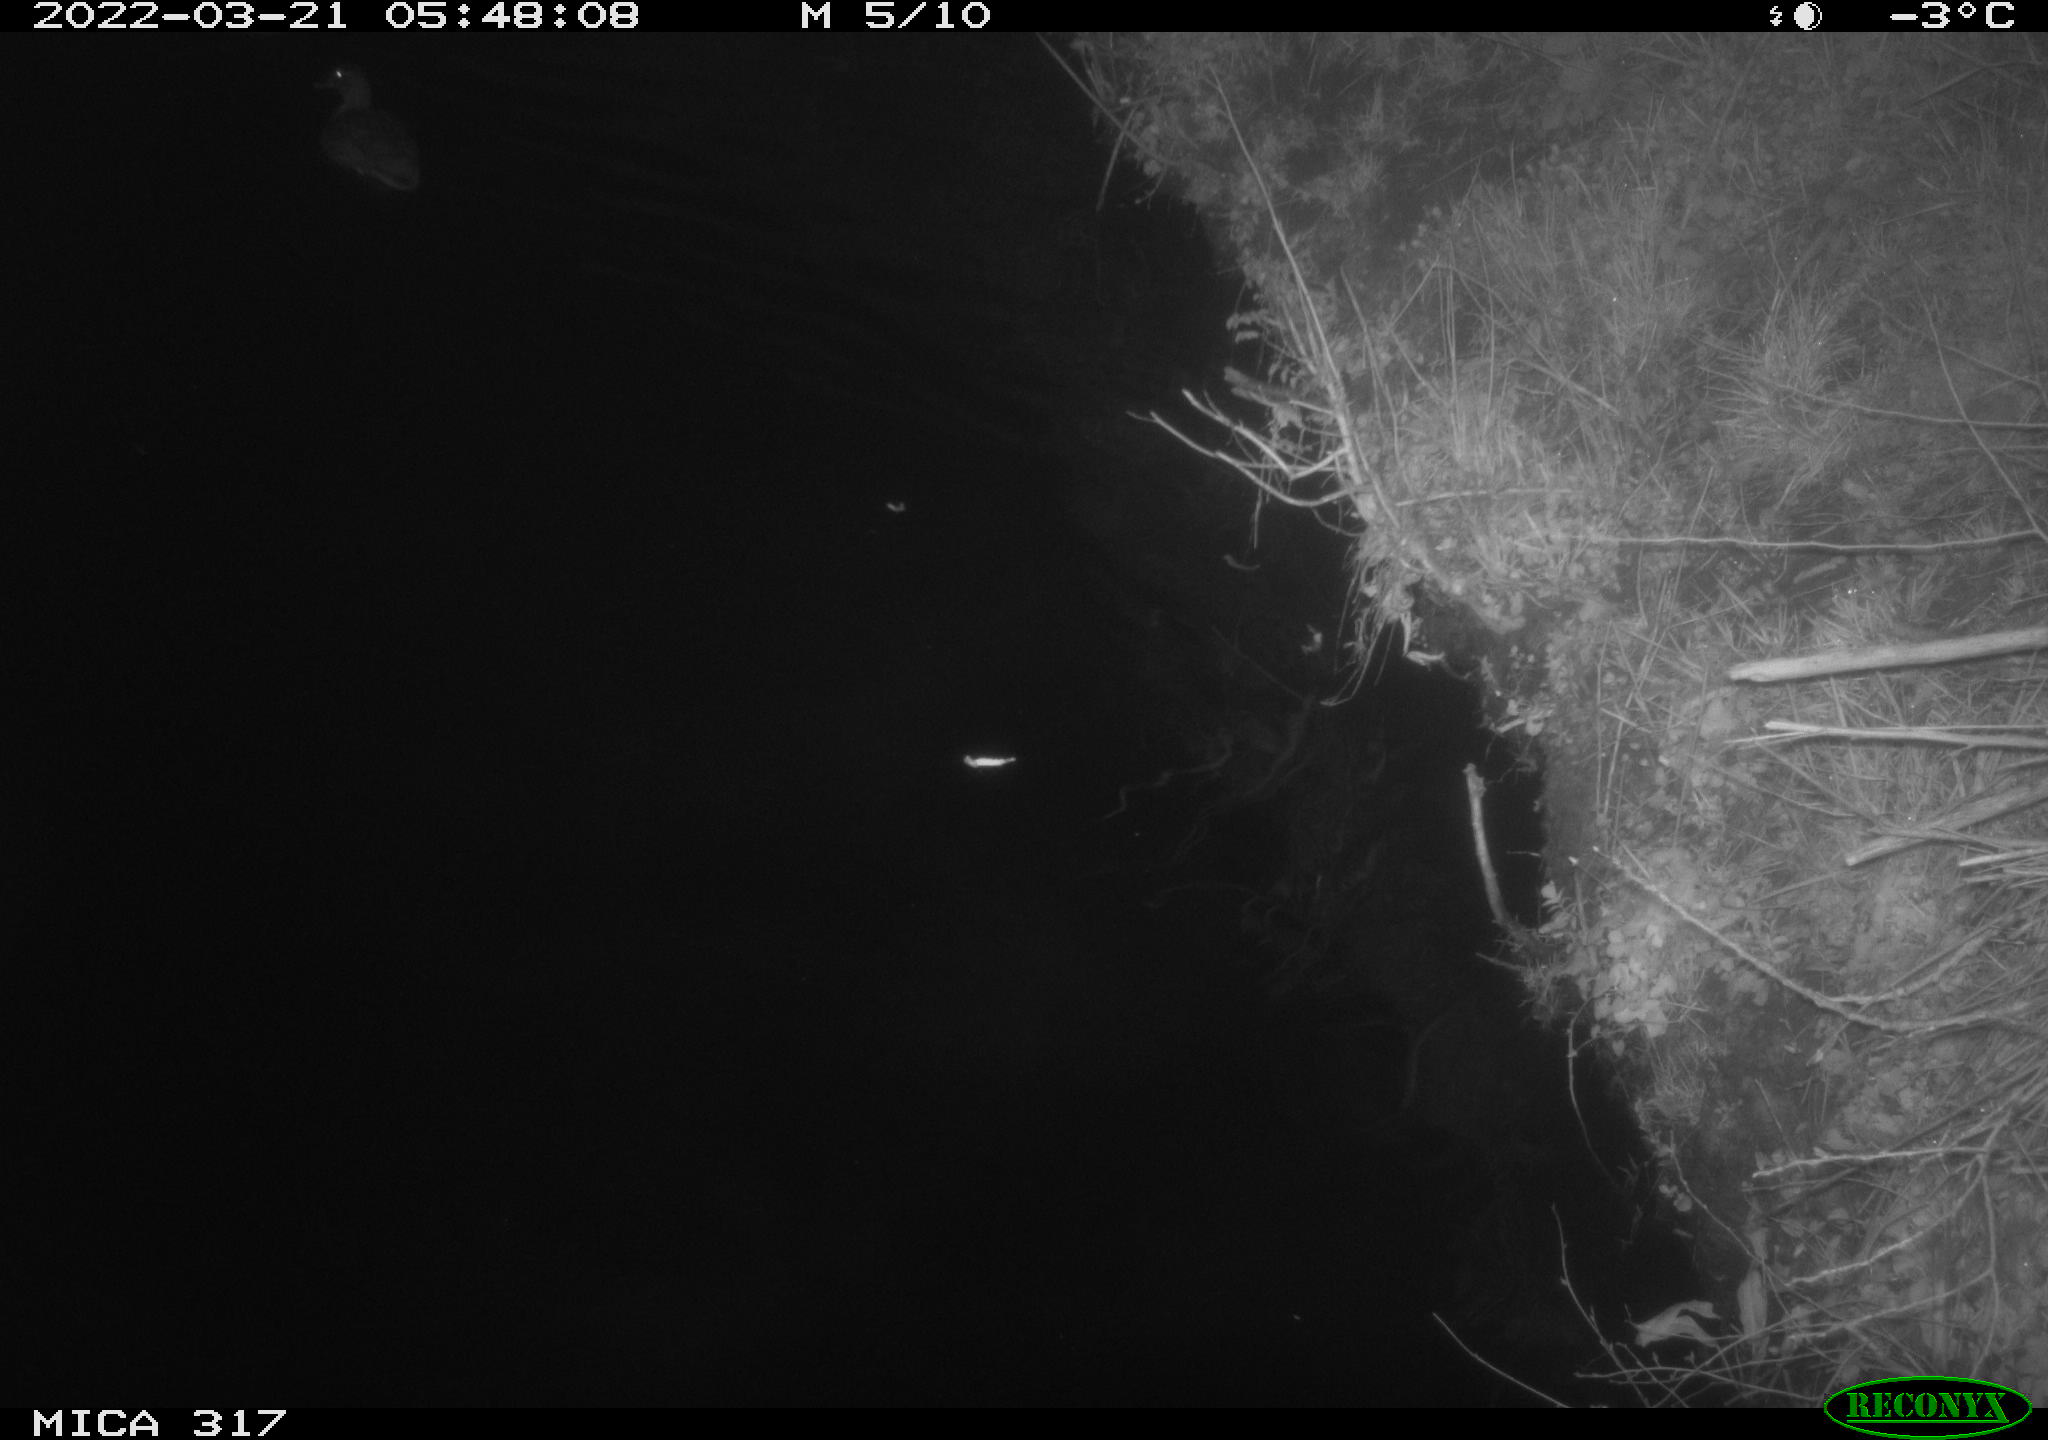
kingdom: Animalia
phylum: Chordata
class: Aves
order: Anseriformes
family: Anatidae
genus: Anas
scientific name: Anas platyrhynchos
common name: Mallard
